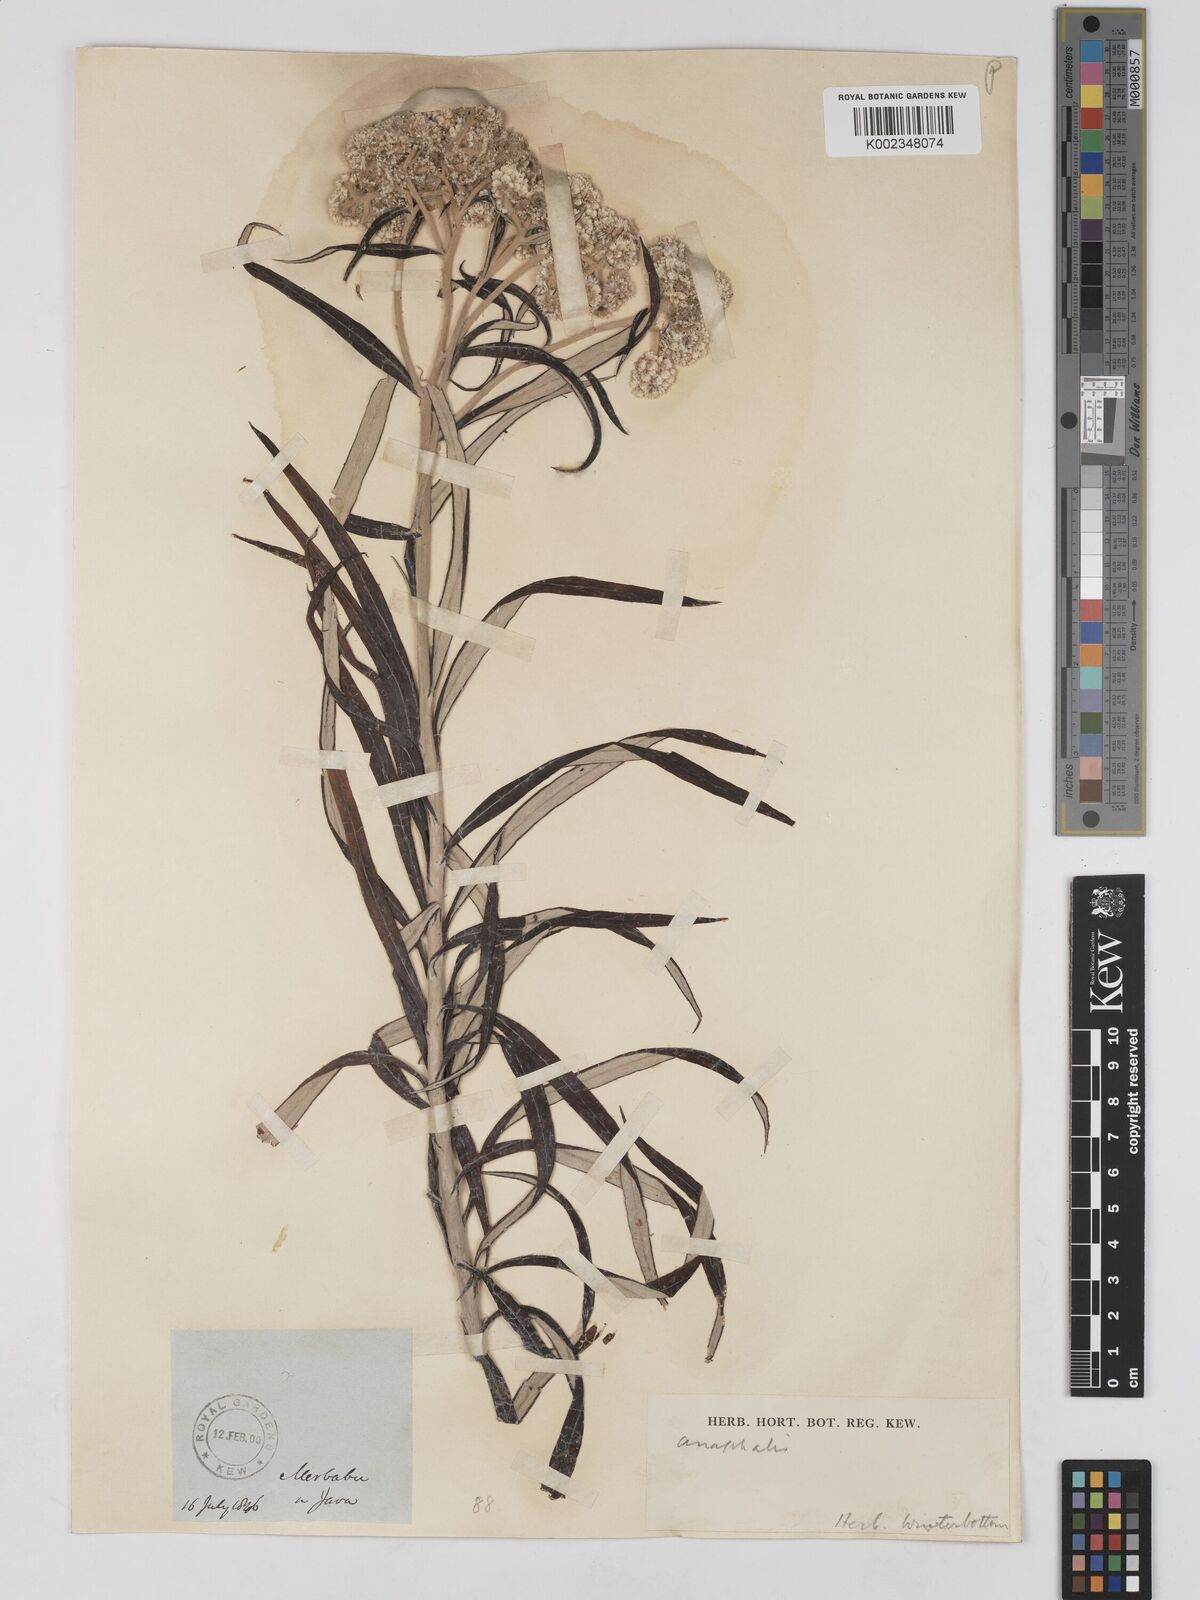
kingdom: Plantae
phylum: Tracheophyta
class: Magnoliopsida
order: Asterales
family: Asteraceae
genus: Anaphalis
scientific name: Anaphalis
